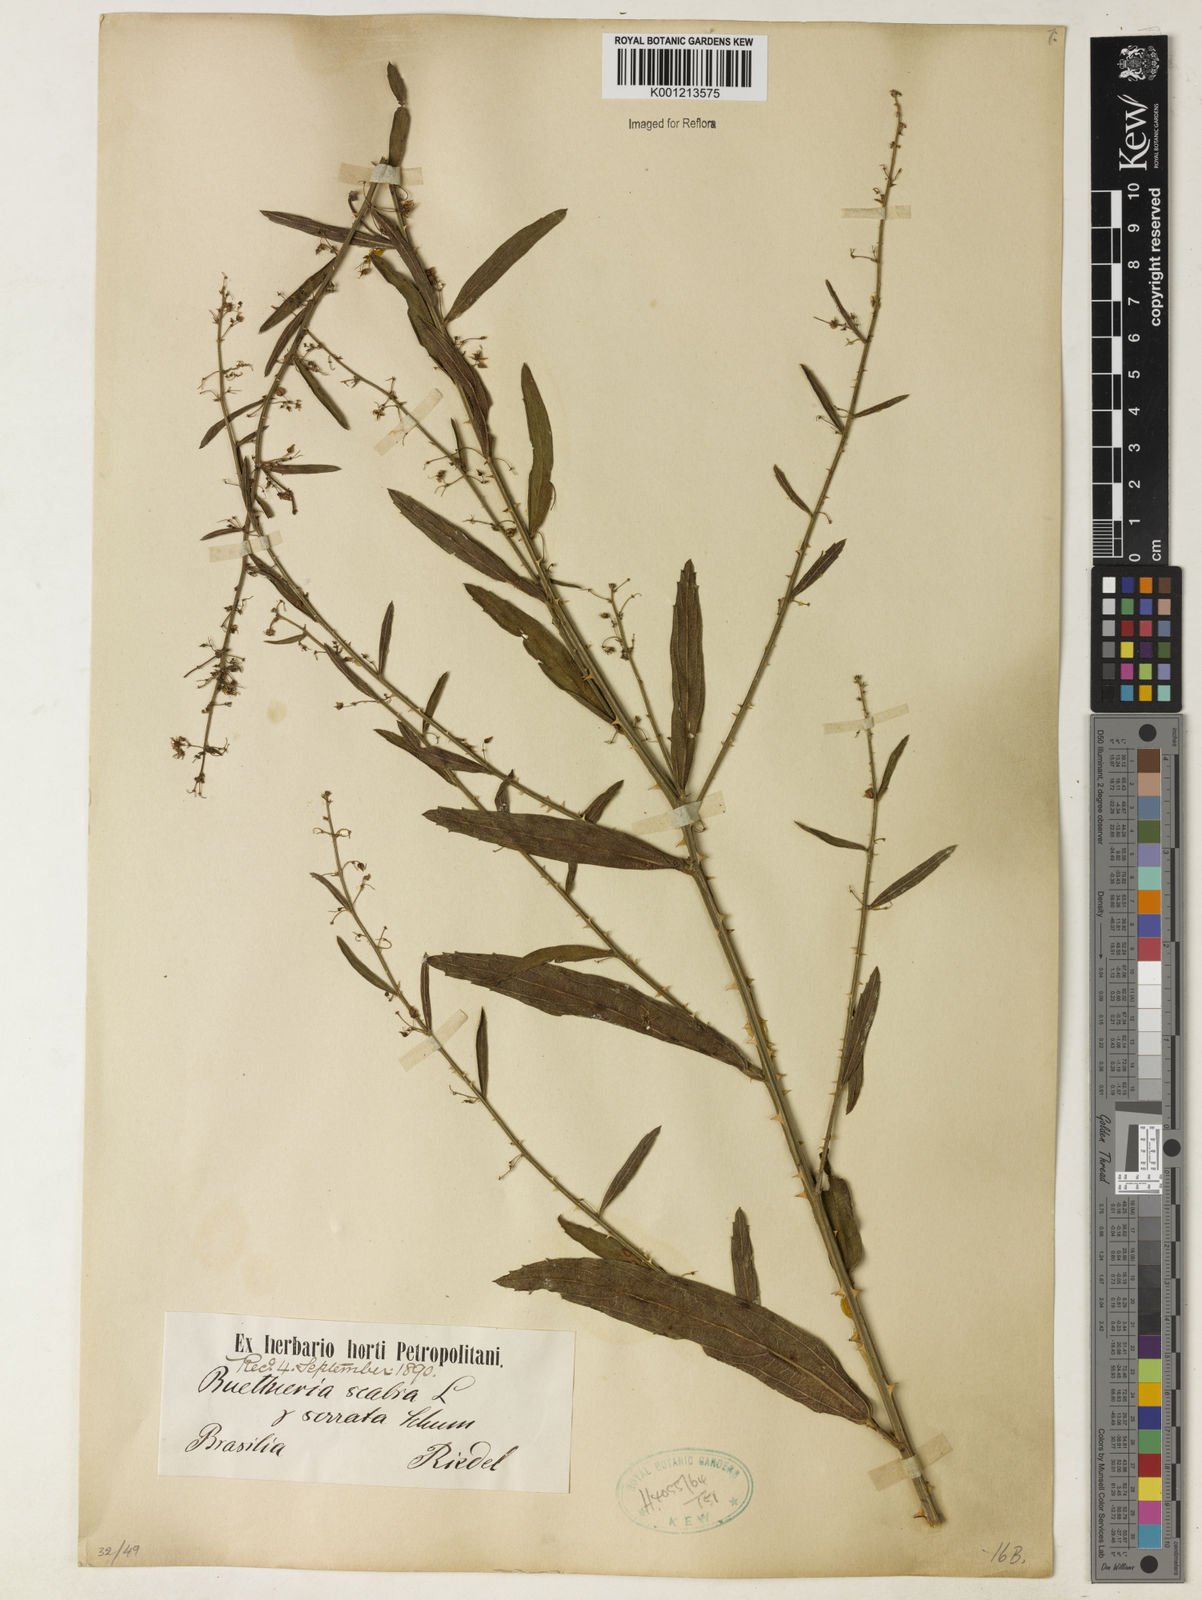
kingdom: Plantae
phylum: Tracheophyta
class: Magnoliopsida
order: Malvales
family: Malvaceae
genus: Byttneria
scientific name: Byttneria
